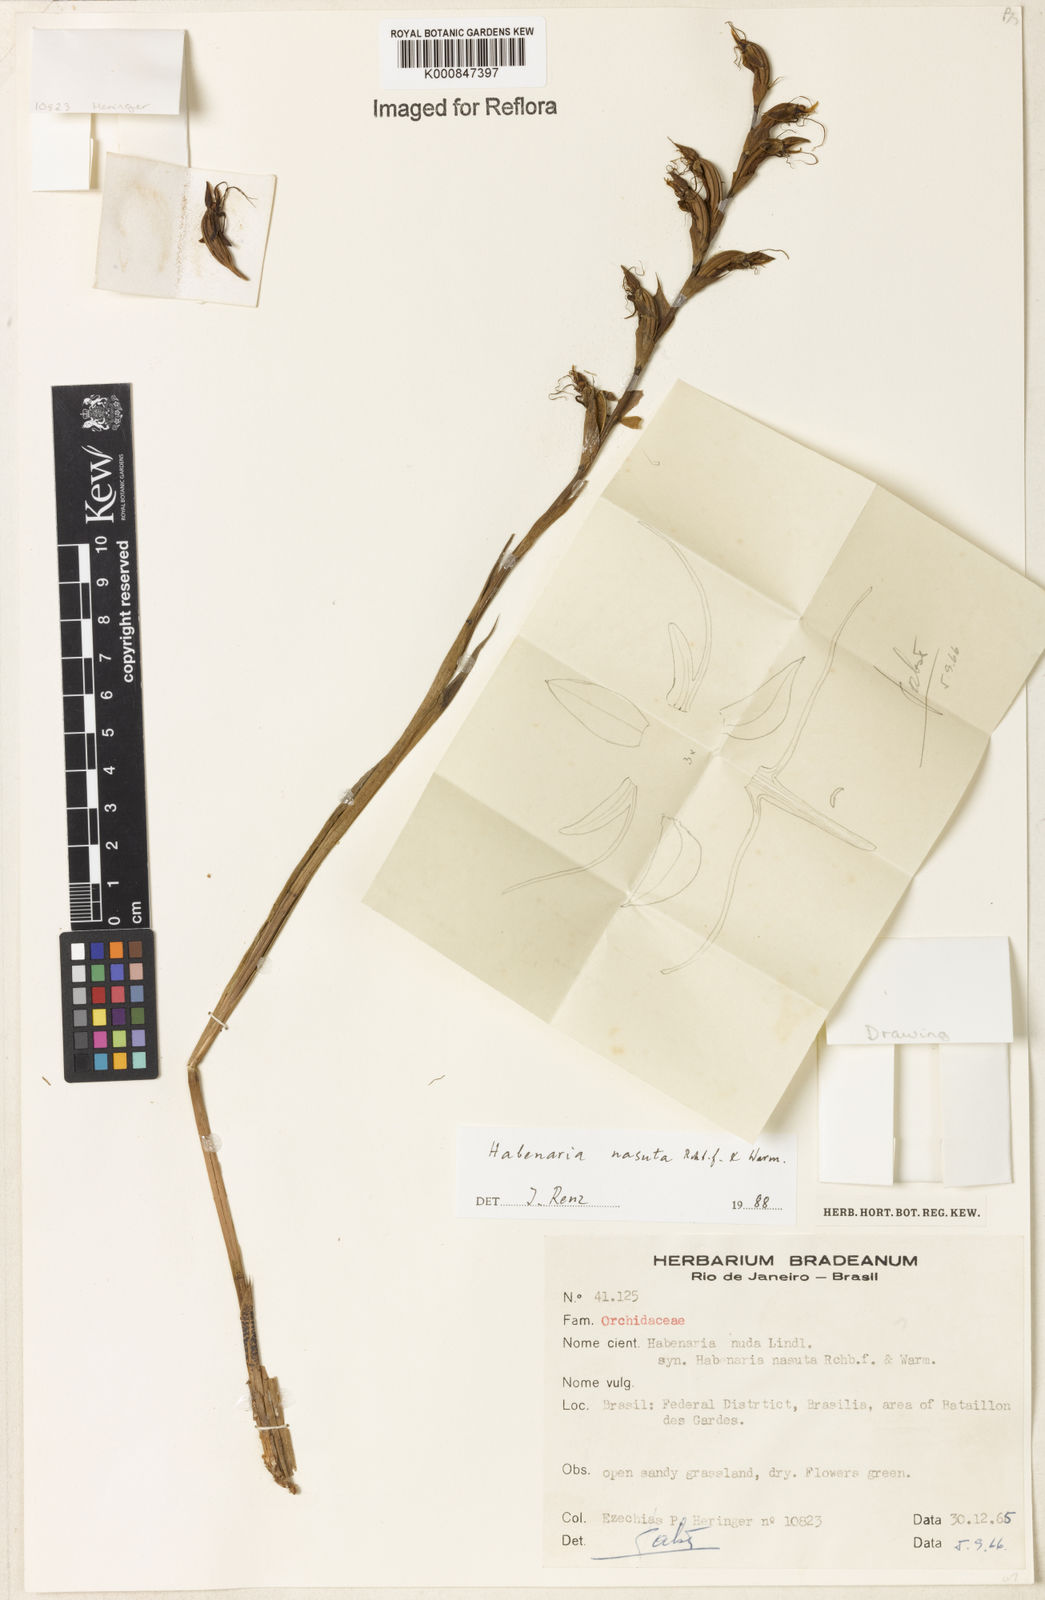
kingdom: Plantae
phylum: Tracheophyta
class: Liliopsida
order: Asparagales
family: Orchidaceae
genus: Habenaria
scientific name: Habenaria nasuta
